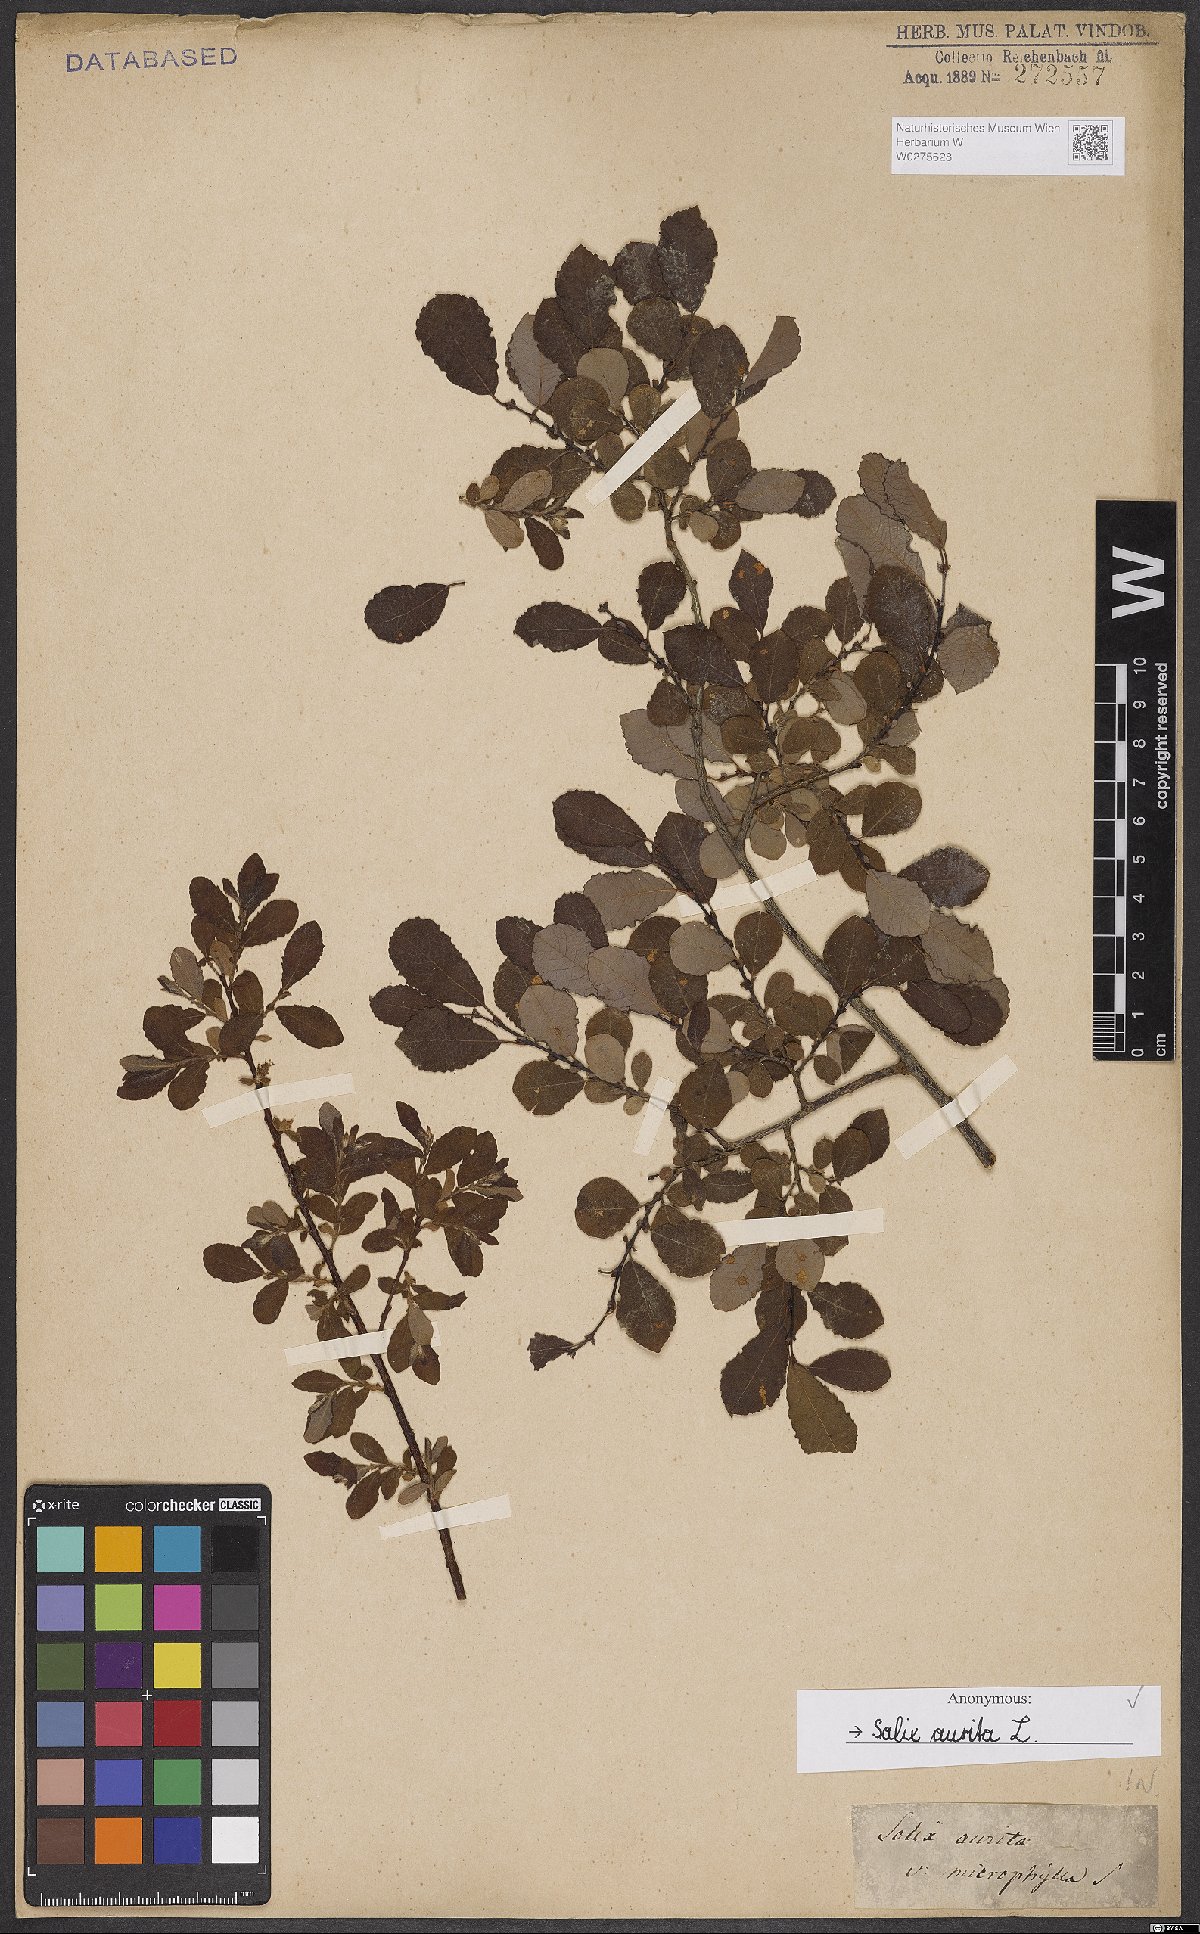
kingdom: Plantae
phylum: Tracheophyta
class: Magnoliopsida
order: Malpighiales
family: Salicaceae
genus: Salix
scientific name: Salix aurita
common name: Eared willow
